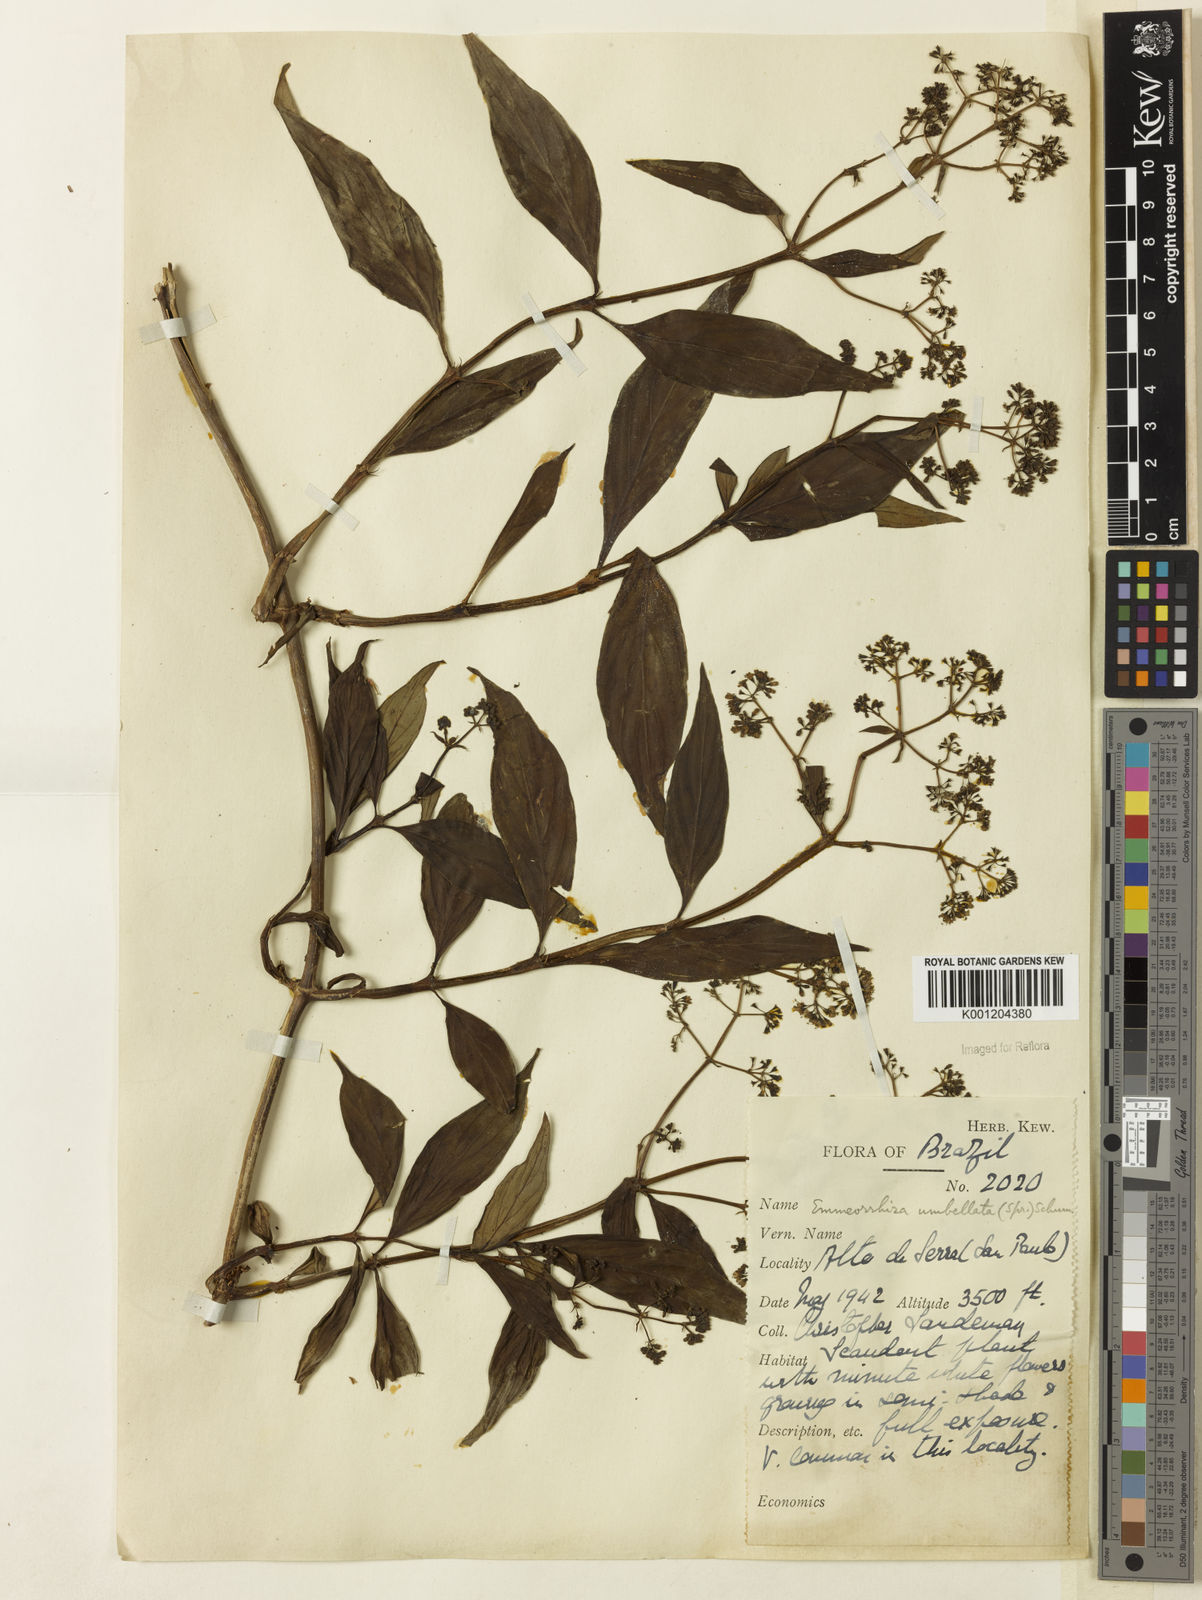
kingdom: Plantae
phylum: Tracheophyta
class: Magnoliopsida
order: Gentianales
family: Rubiaceae
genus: Emmeorhiza
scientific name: Emmeorhiza umbellata
